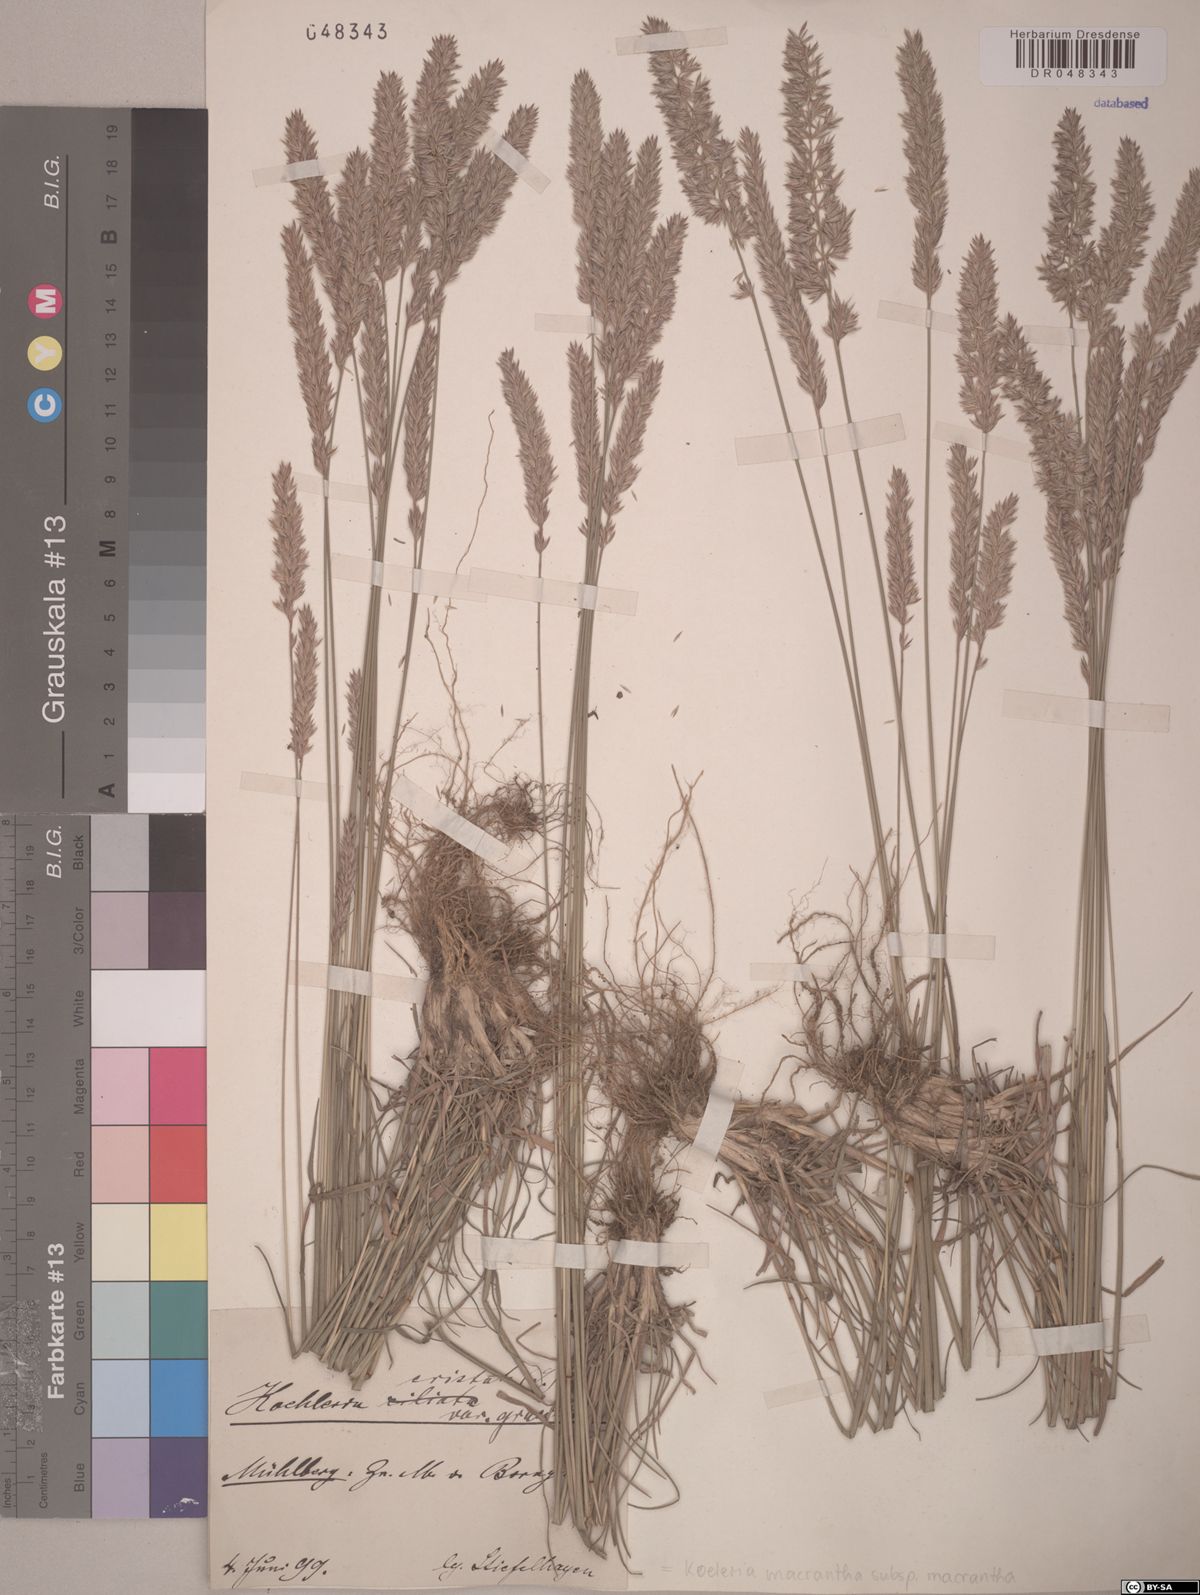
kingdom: Plantae
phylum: Tracheophyta
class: Liliopsida
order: Poales
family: Poaceae
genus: Koeleria
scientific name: Koeleria macrantha
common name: Crested hair-grass
